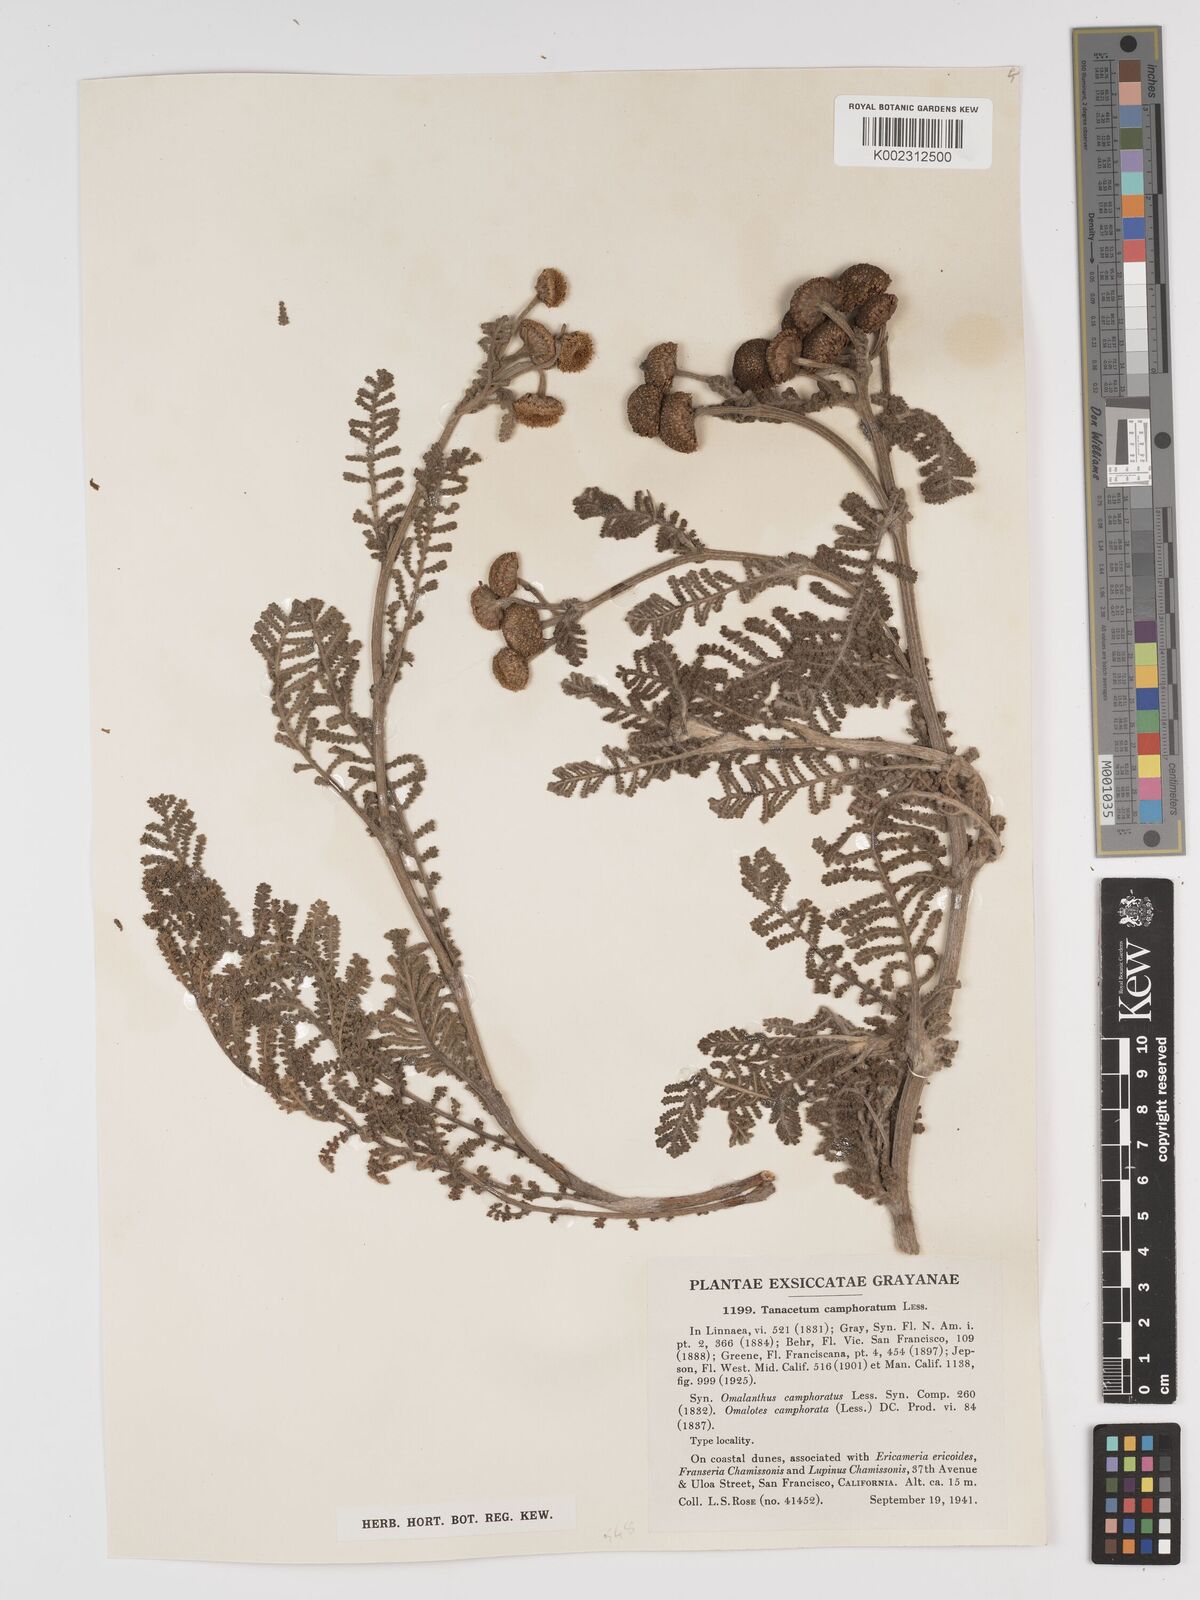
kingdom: Plantae
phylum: Tracheophyta
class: Magnoliopsida
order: Asterales
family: Asteraceae
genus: Tanacetum
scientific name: Tanacetum bipinnatum
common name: Dwarf tansy
